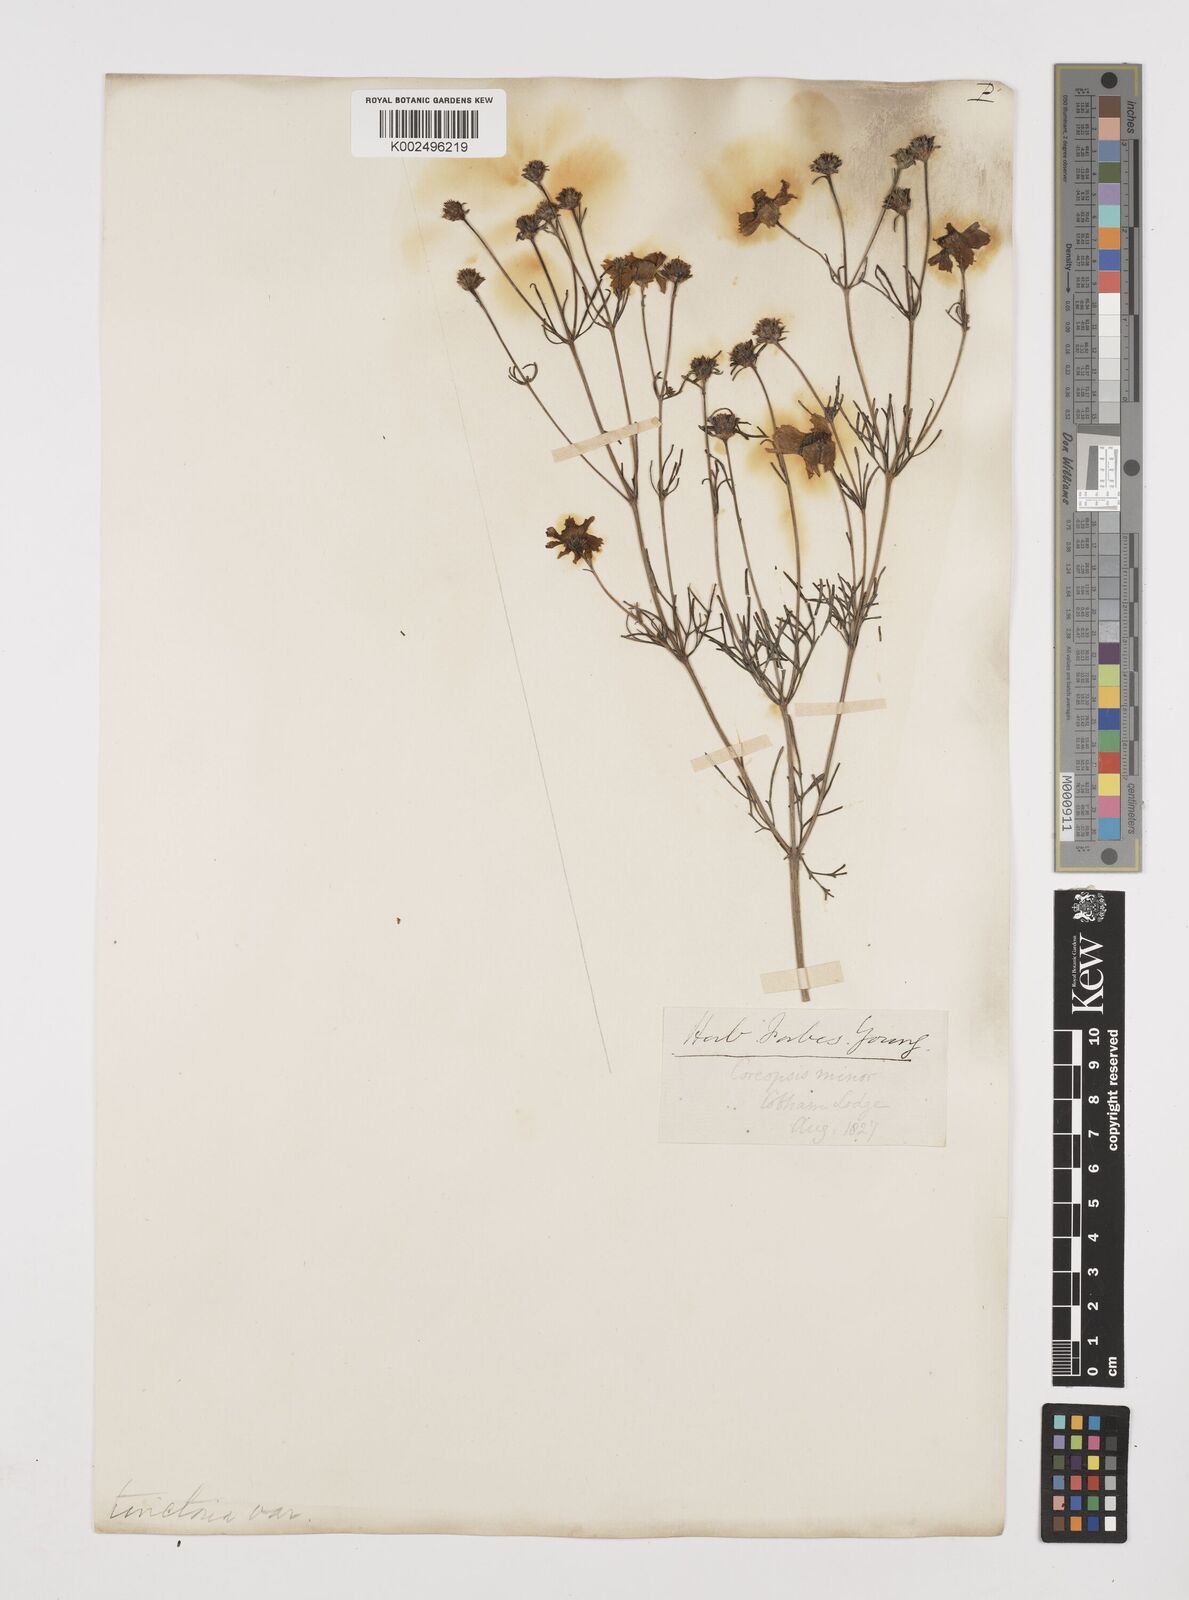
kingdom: Plantae
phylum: Tracheophyta
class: Magnoliopsida
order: Asterales
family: Asteraceae
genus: Coreopsis
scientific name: Coreopsis tinctoria
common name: Garden tickseed
